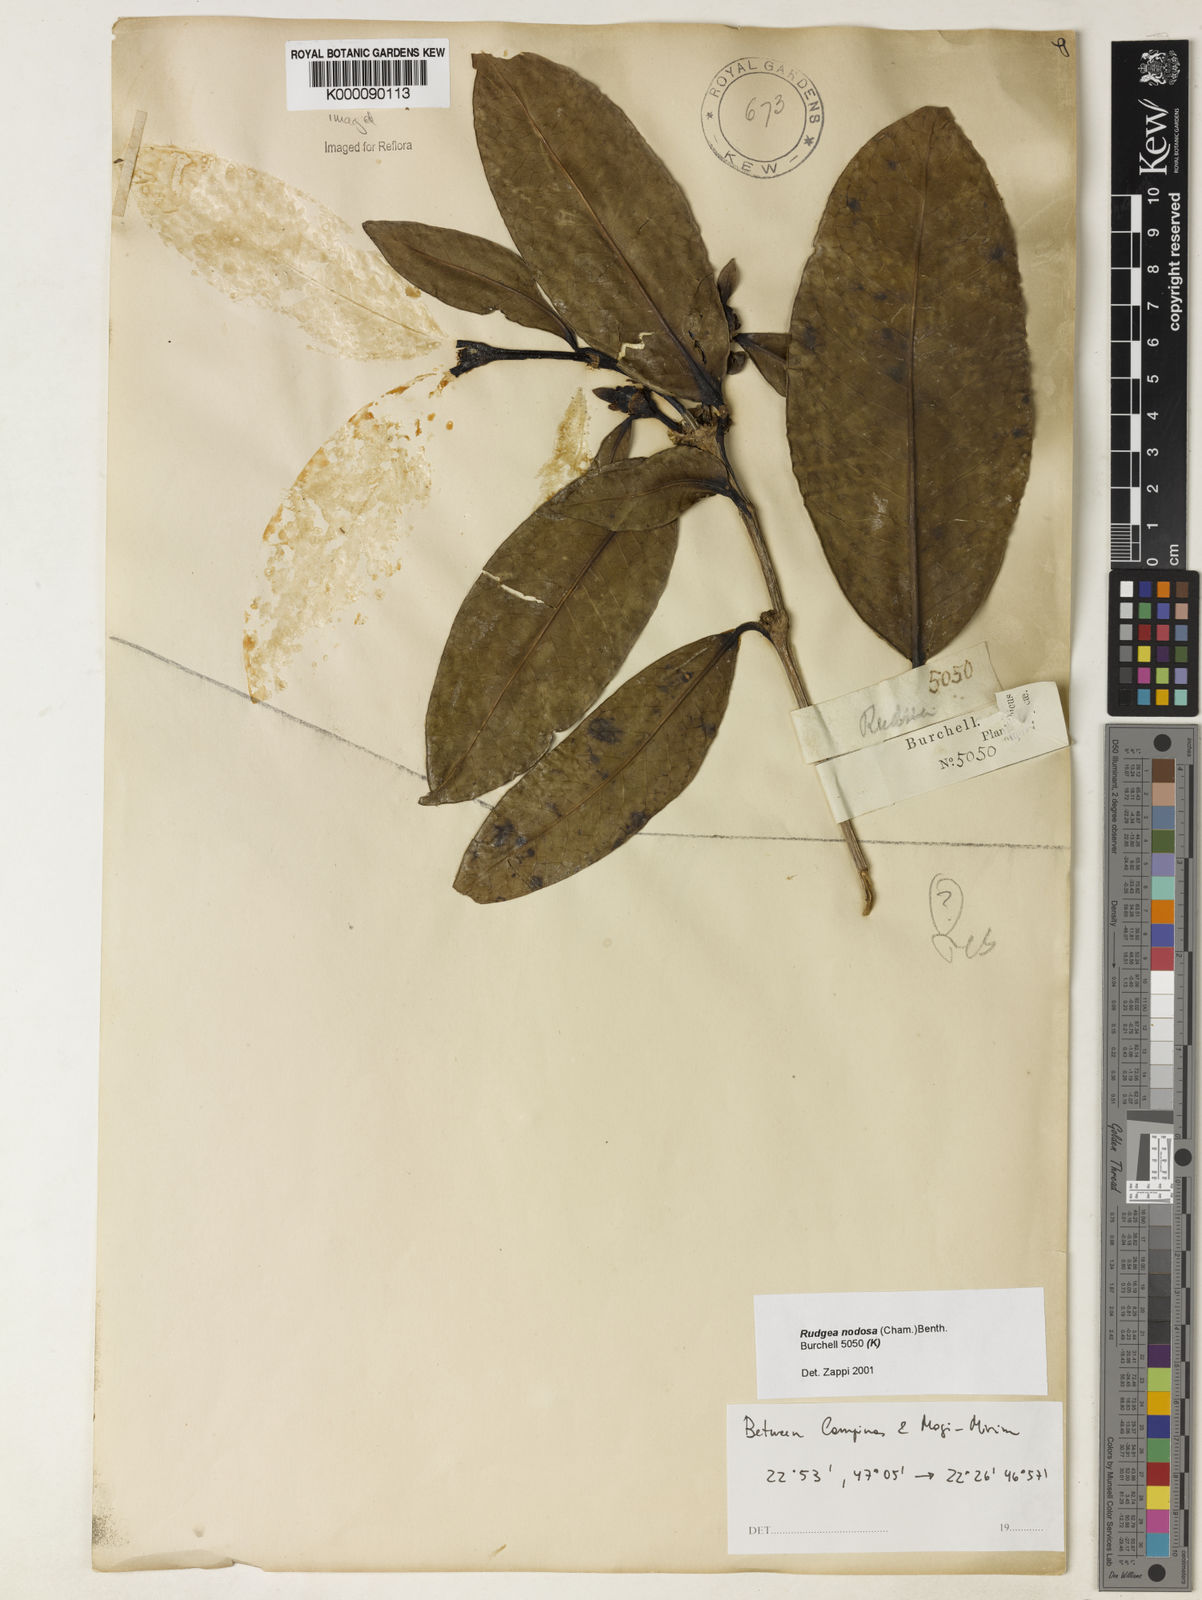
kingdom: Plantae
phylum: Tracheophyta
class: Magnoliopsida
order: Gentianales
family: Rubiaceae
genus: Rudgea
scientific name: Rudgea nodosa
